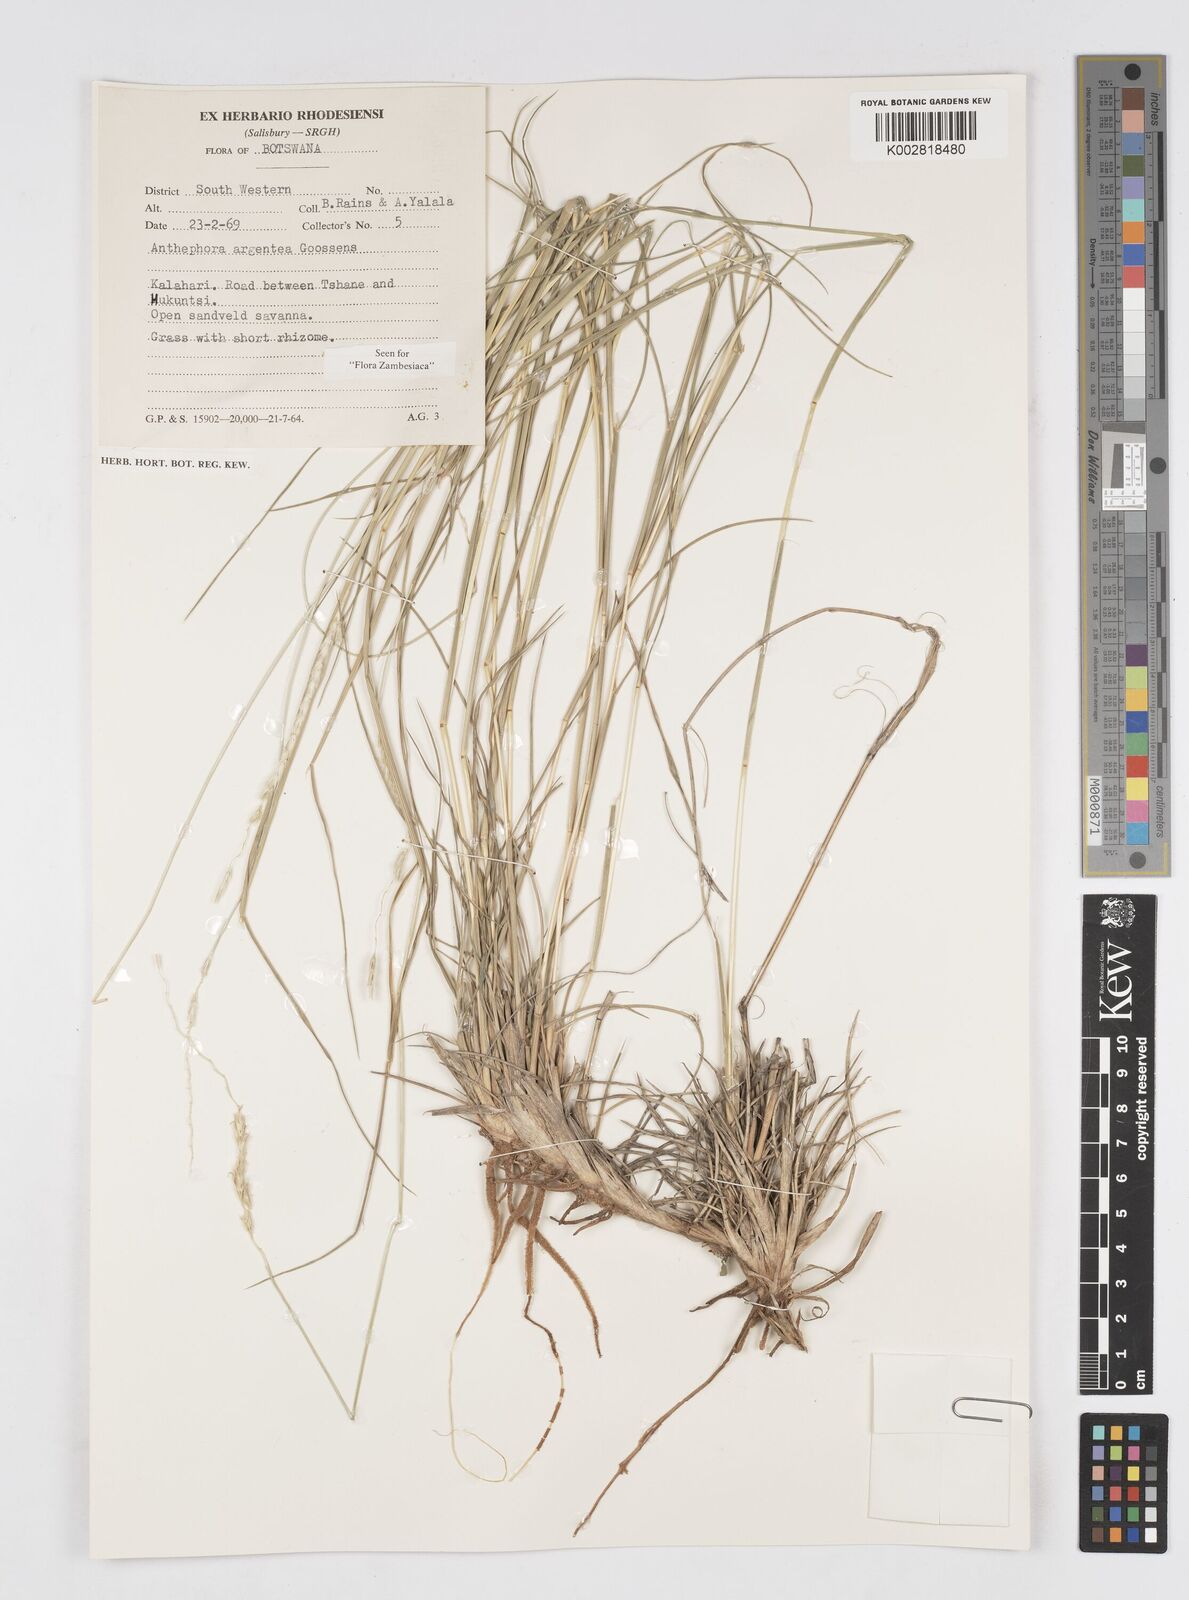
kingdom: Plantae
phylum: Tracheophyta
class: Liliopsida
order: Poales
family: Poaceae
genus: Anthephora
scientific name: Anthephora argentea
